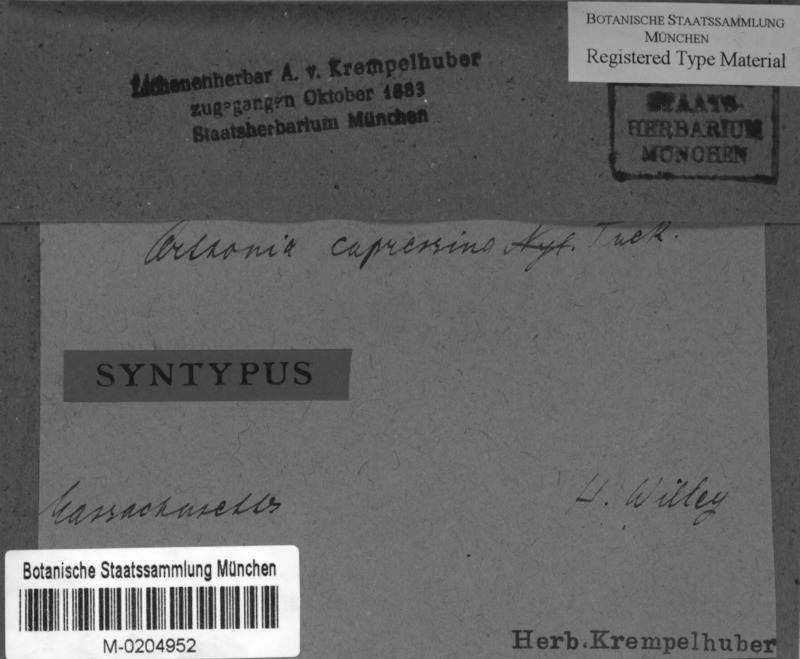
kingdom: Fungi
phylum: Ascomycota
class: Arthoniomycetes
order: Arthoniales
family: Arthoniaceae
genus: Arthonia
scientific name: Arthonia cupressina
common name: Golden spruce dots
